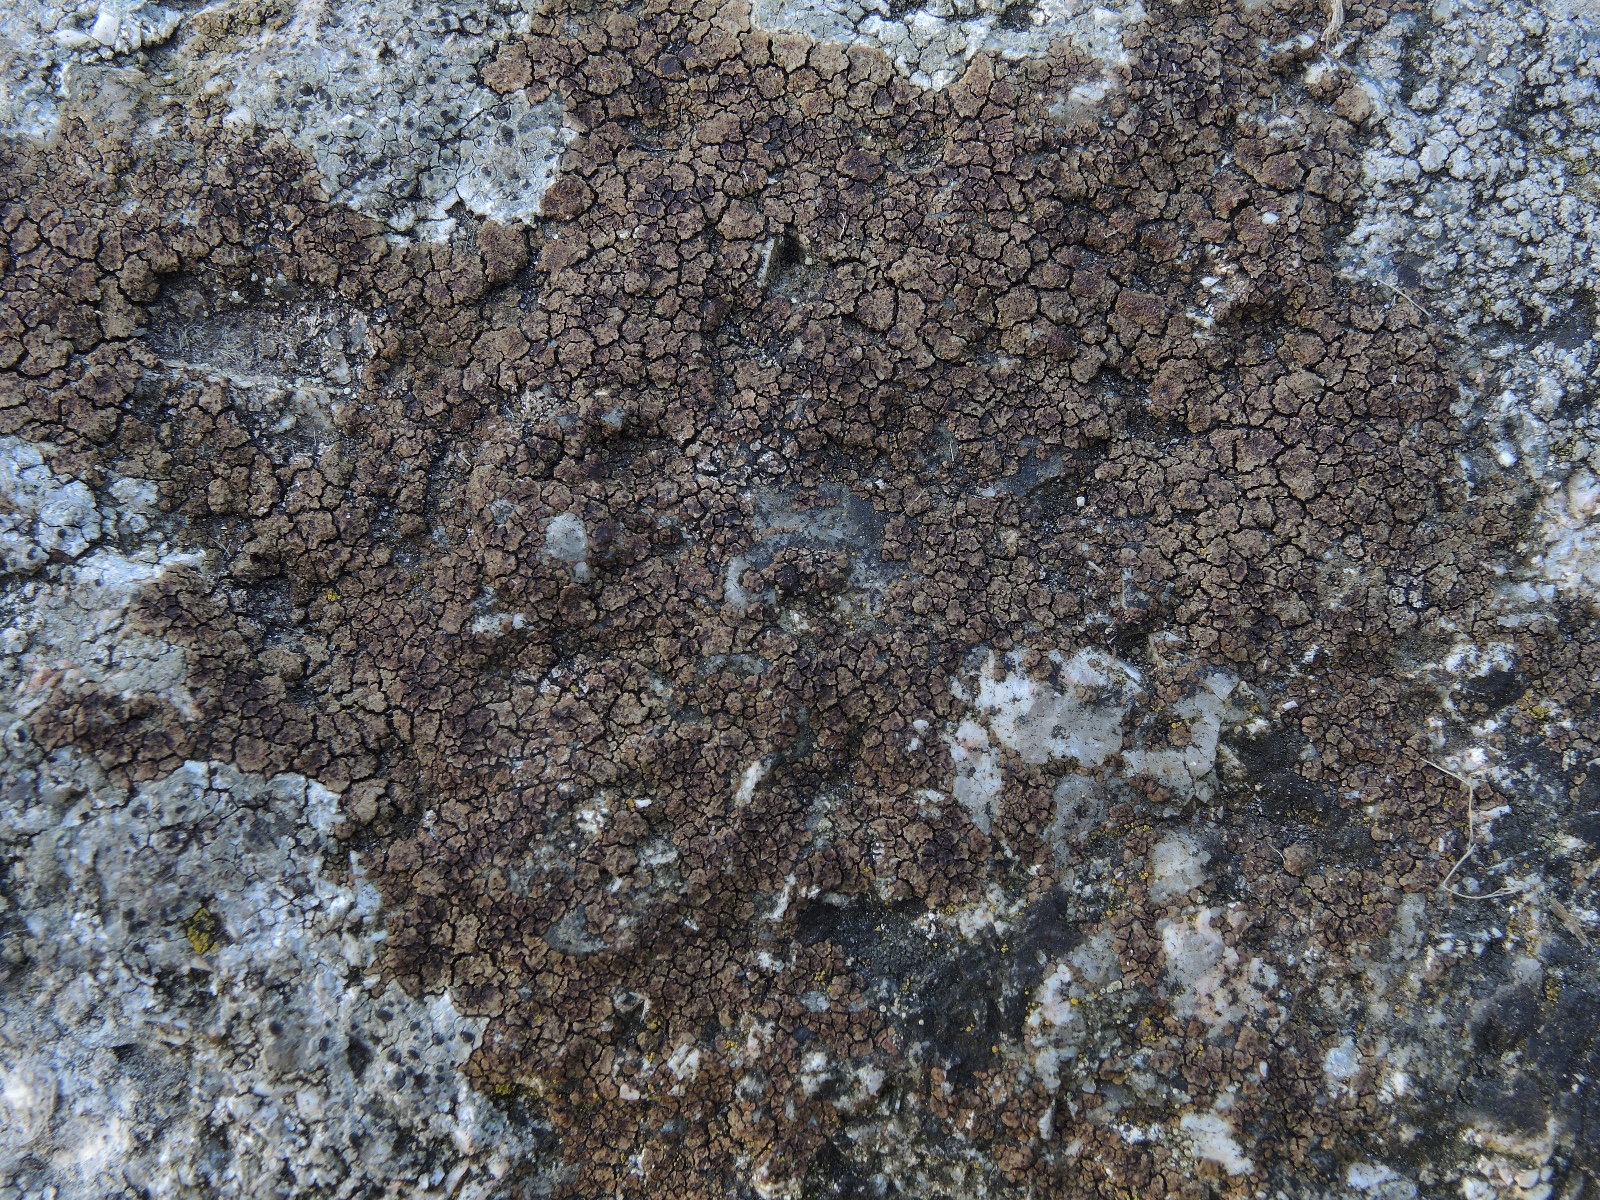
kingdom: Fungi
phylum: Ascomycota
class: Lecanoromycetes
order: Acarosporales
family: Acarosporaceae
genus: Acarospora
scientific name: Acarospora fuscata
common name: brun småsporelav
